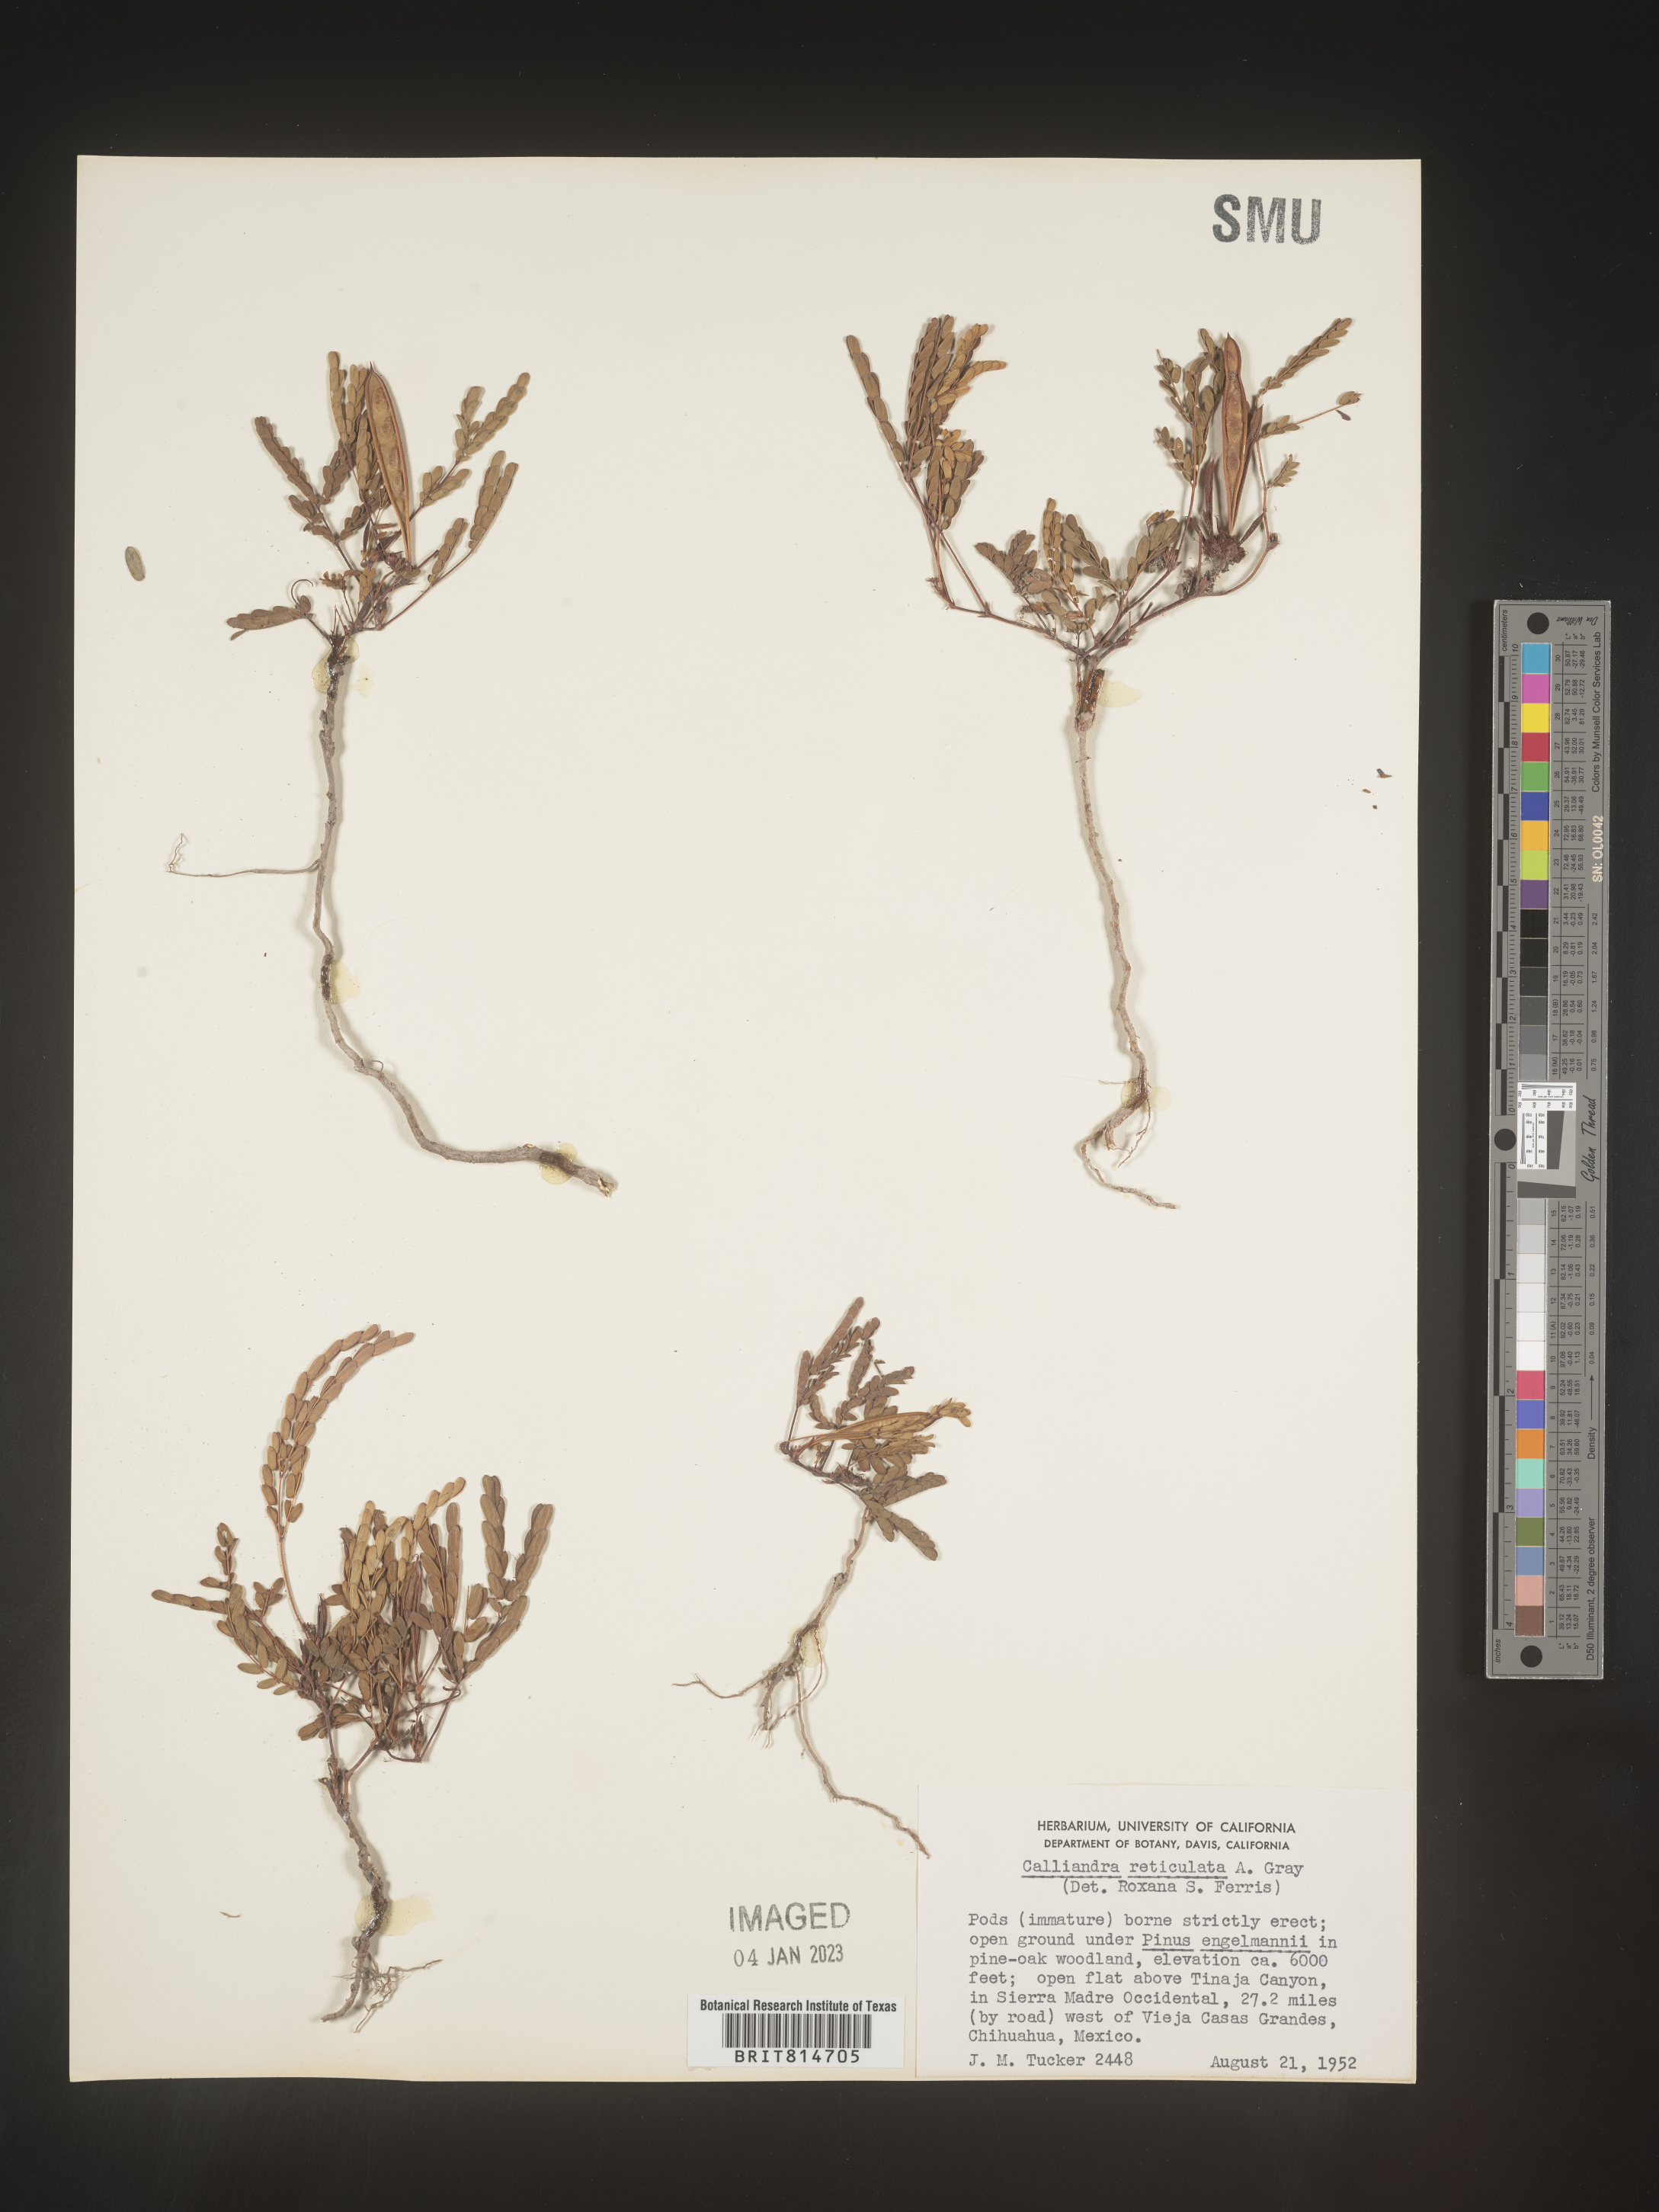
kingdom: Plantae
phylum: Tracheophyta
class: Magnoliopsida
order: Fabales
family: Fabaceae
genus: Calliandra
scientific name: Calliandra
